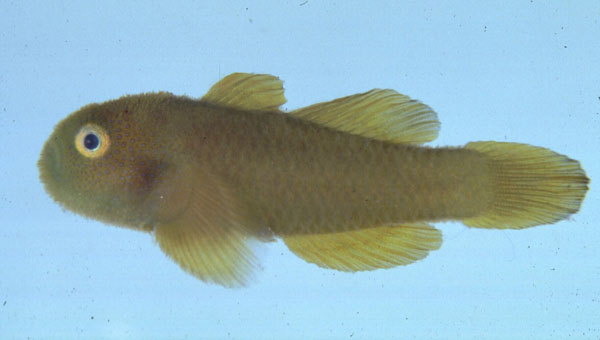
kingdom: Animalia
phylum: Chordata
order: Perciformes
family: Gobiidae
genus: Paragobiodon
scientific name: Paragobiodon xanthosoma
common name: Yellowskin goby
